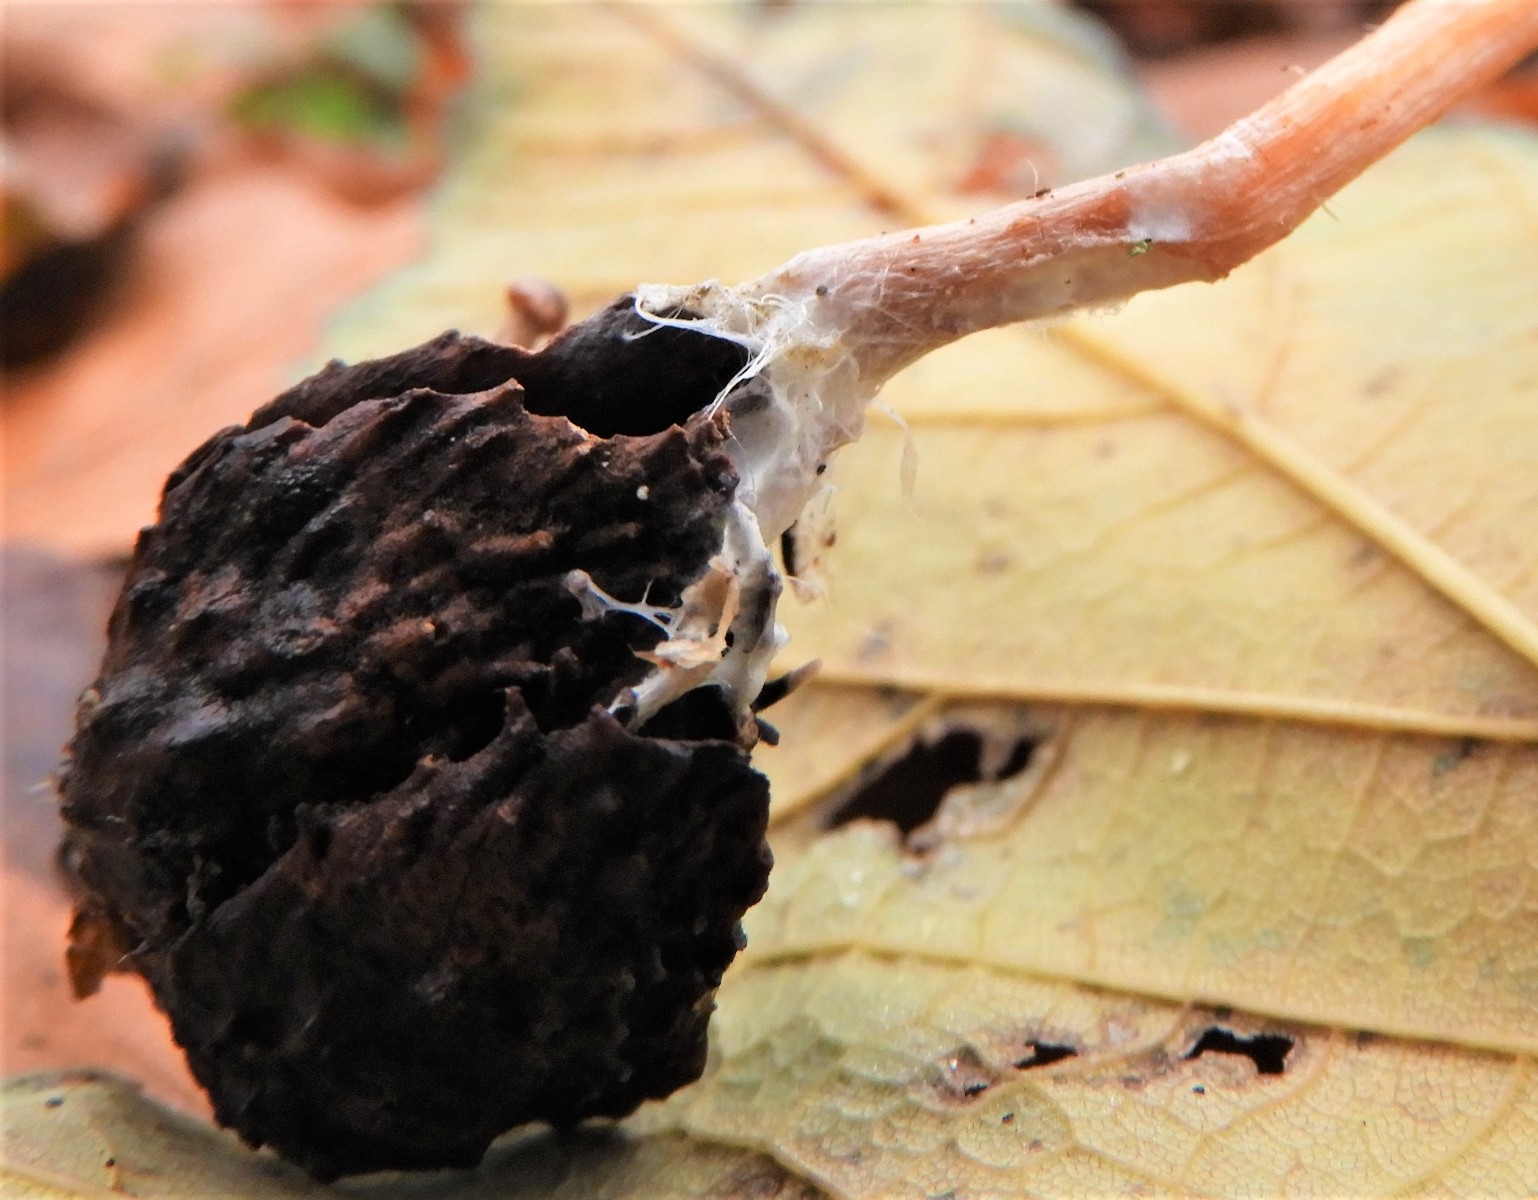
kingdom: Fungi
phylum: Basidiomycota
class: Agaricomycetes
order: Agaricales
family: Tubariaceae
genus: Tubaria
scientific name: Tubaria furfuracea
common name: kliddet fnughat
